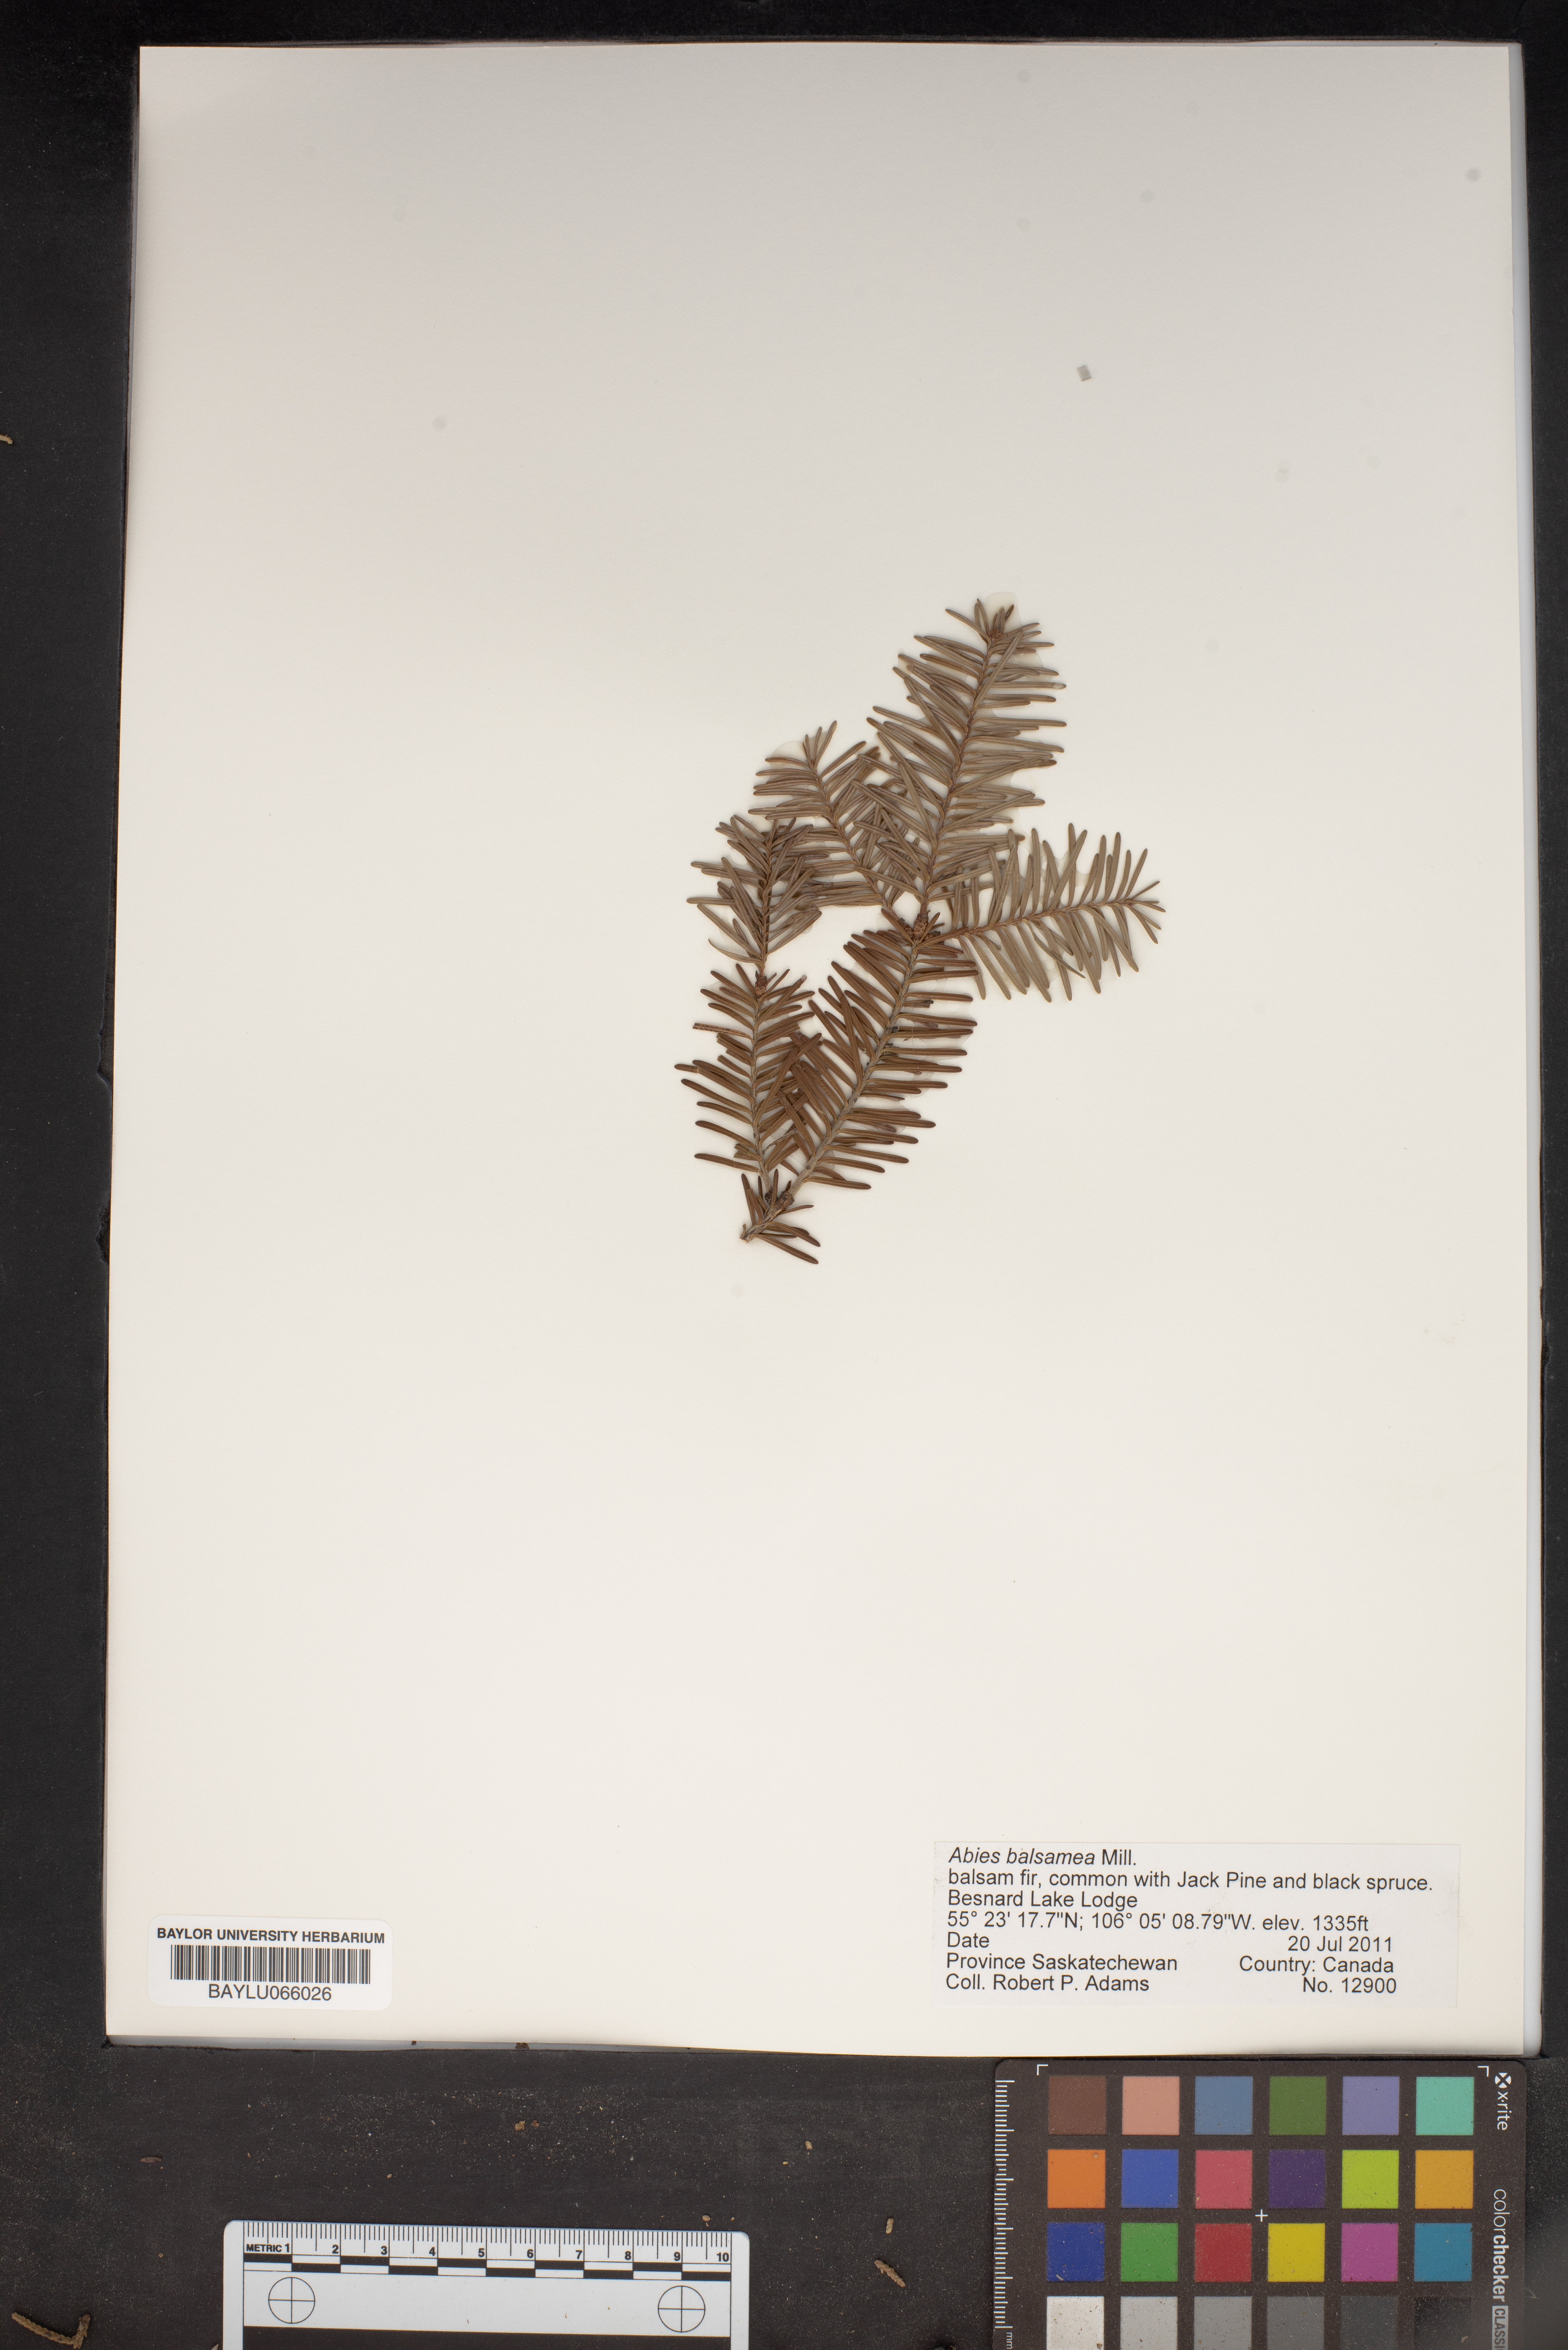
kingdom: Plantae
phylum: Tracheophyta
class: Pinopsida
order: Pinales
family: Pinaceae
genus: Abies
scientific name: Abies balsamea
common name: Balsam fir
